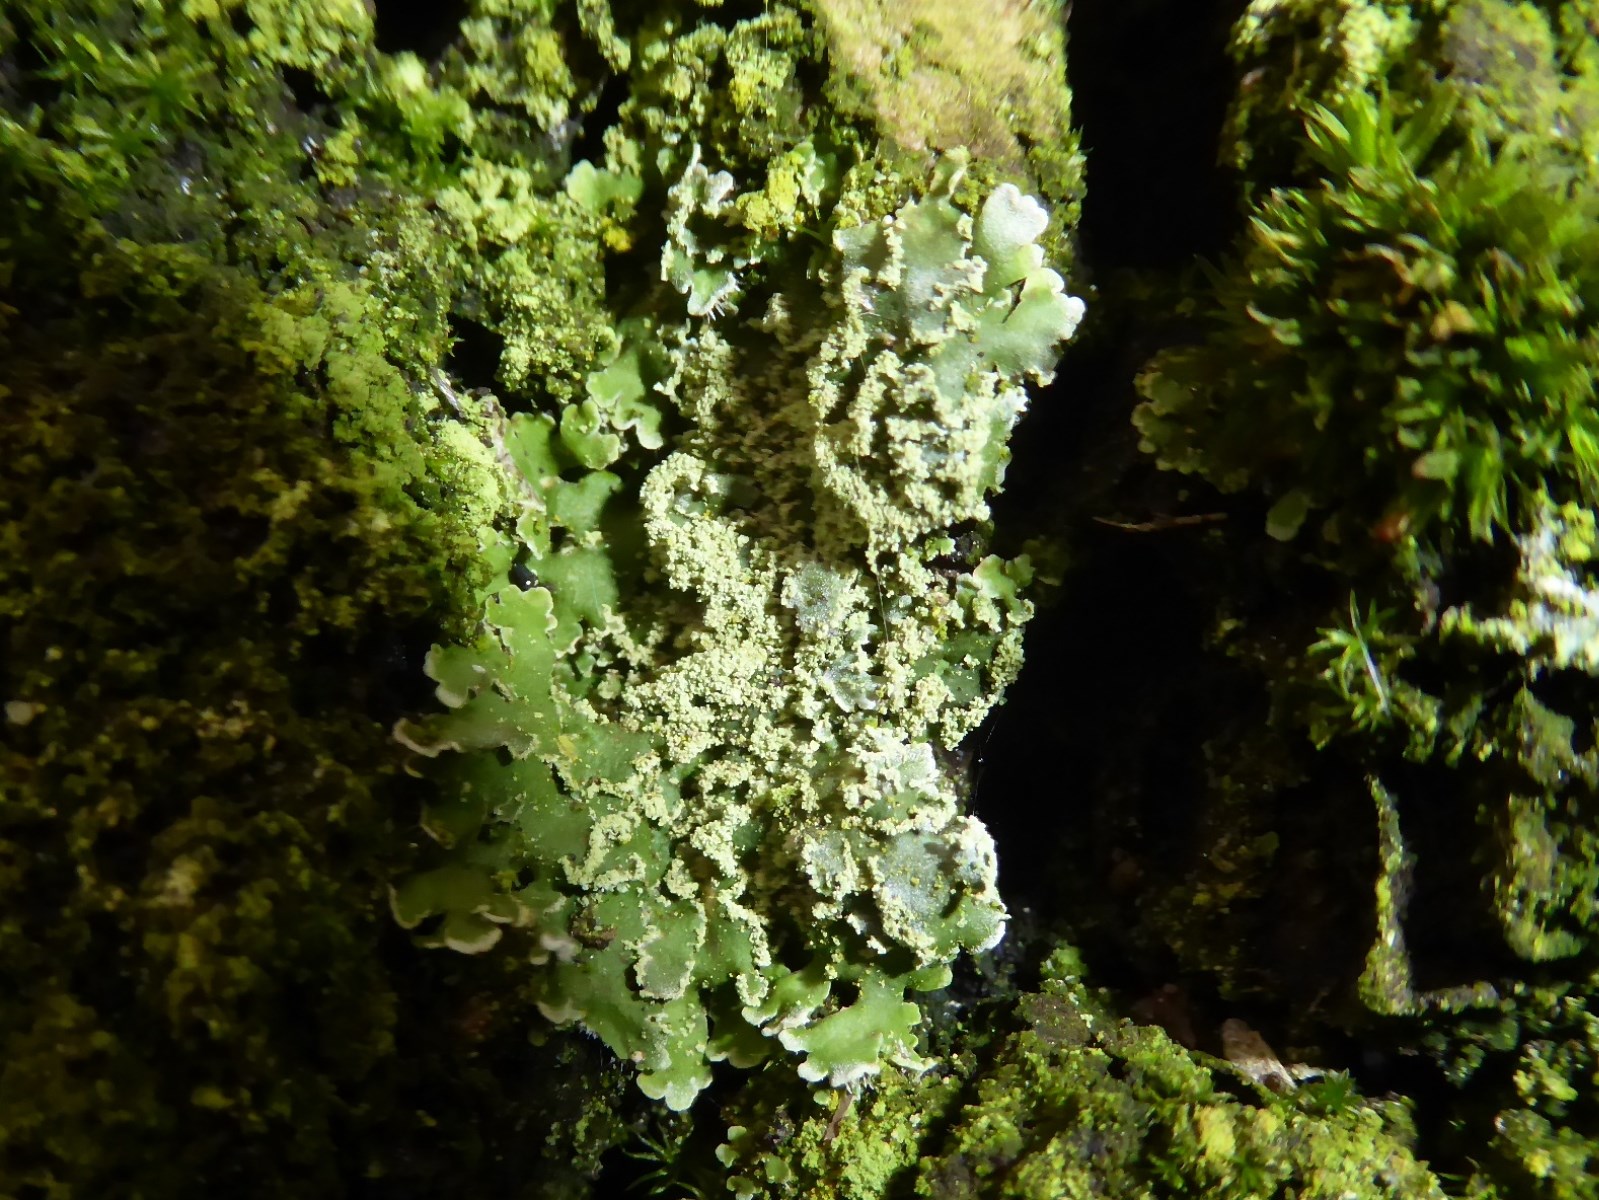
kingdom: Fungi
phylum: Ascomycota
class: Lecanoromycetes
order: Caliciales
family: Physciaceae
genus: Physconia
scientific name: Physconia perisidiosa
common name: liden dugrosetlav
